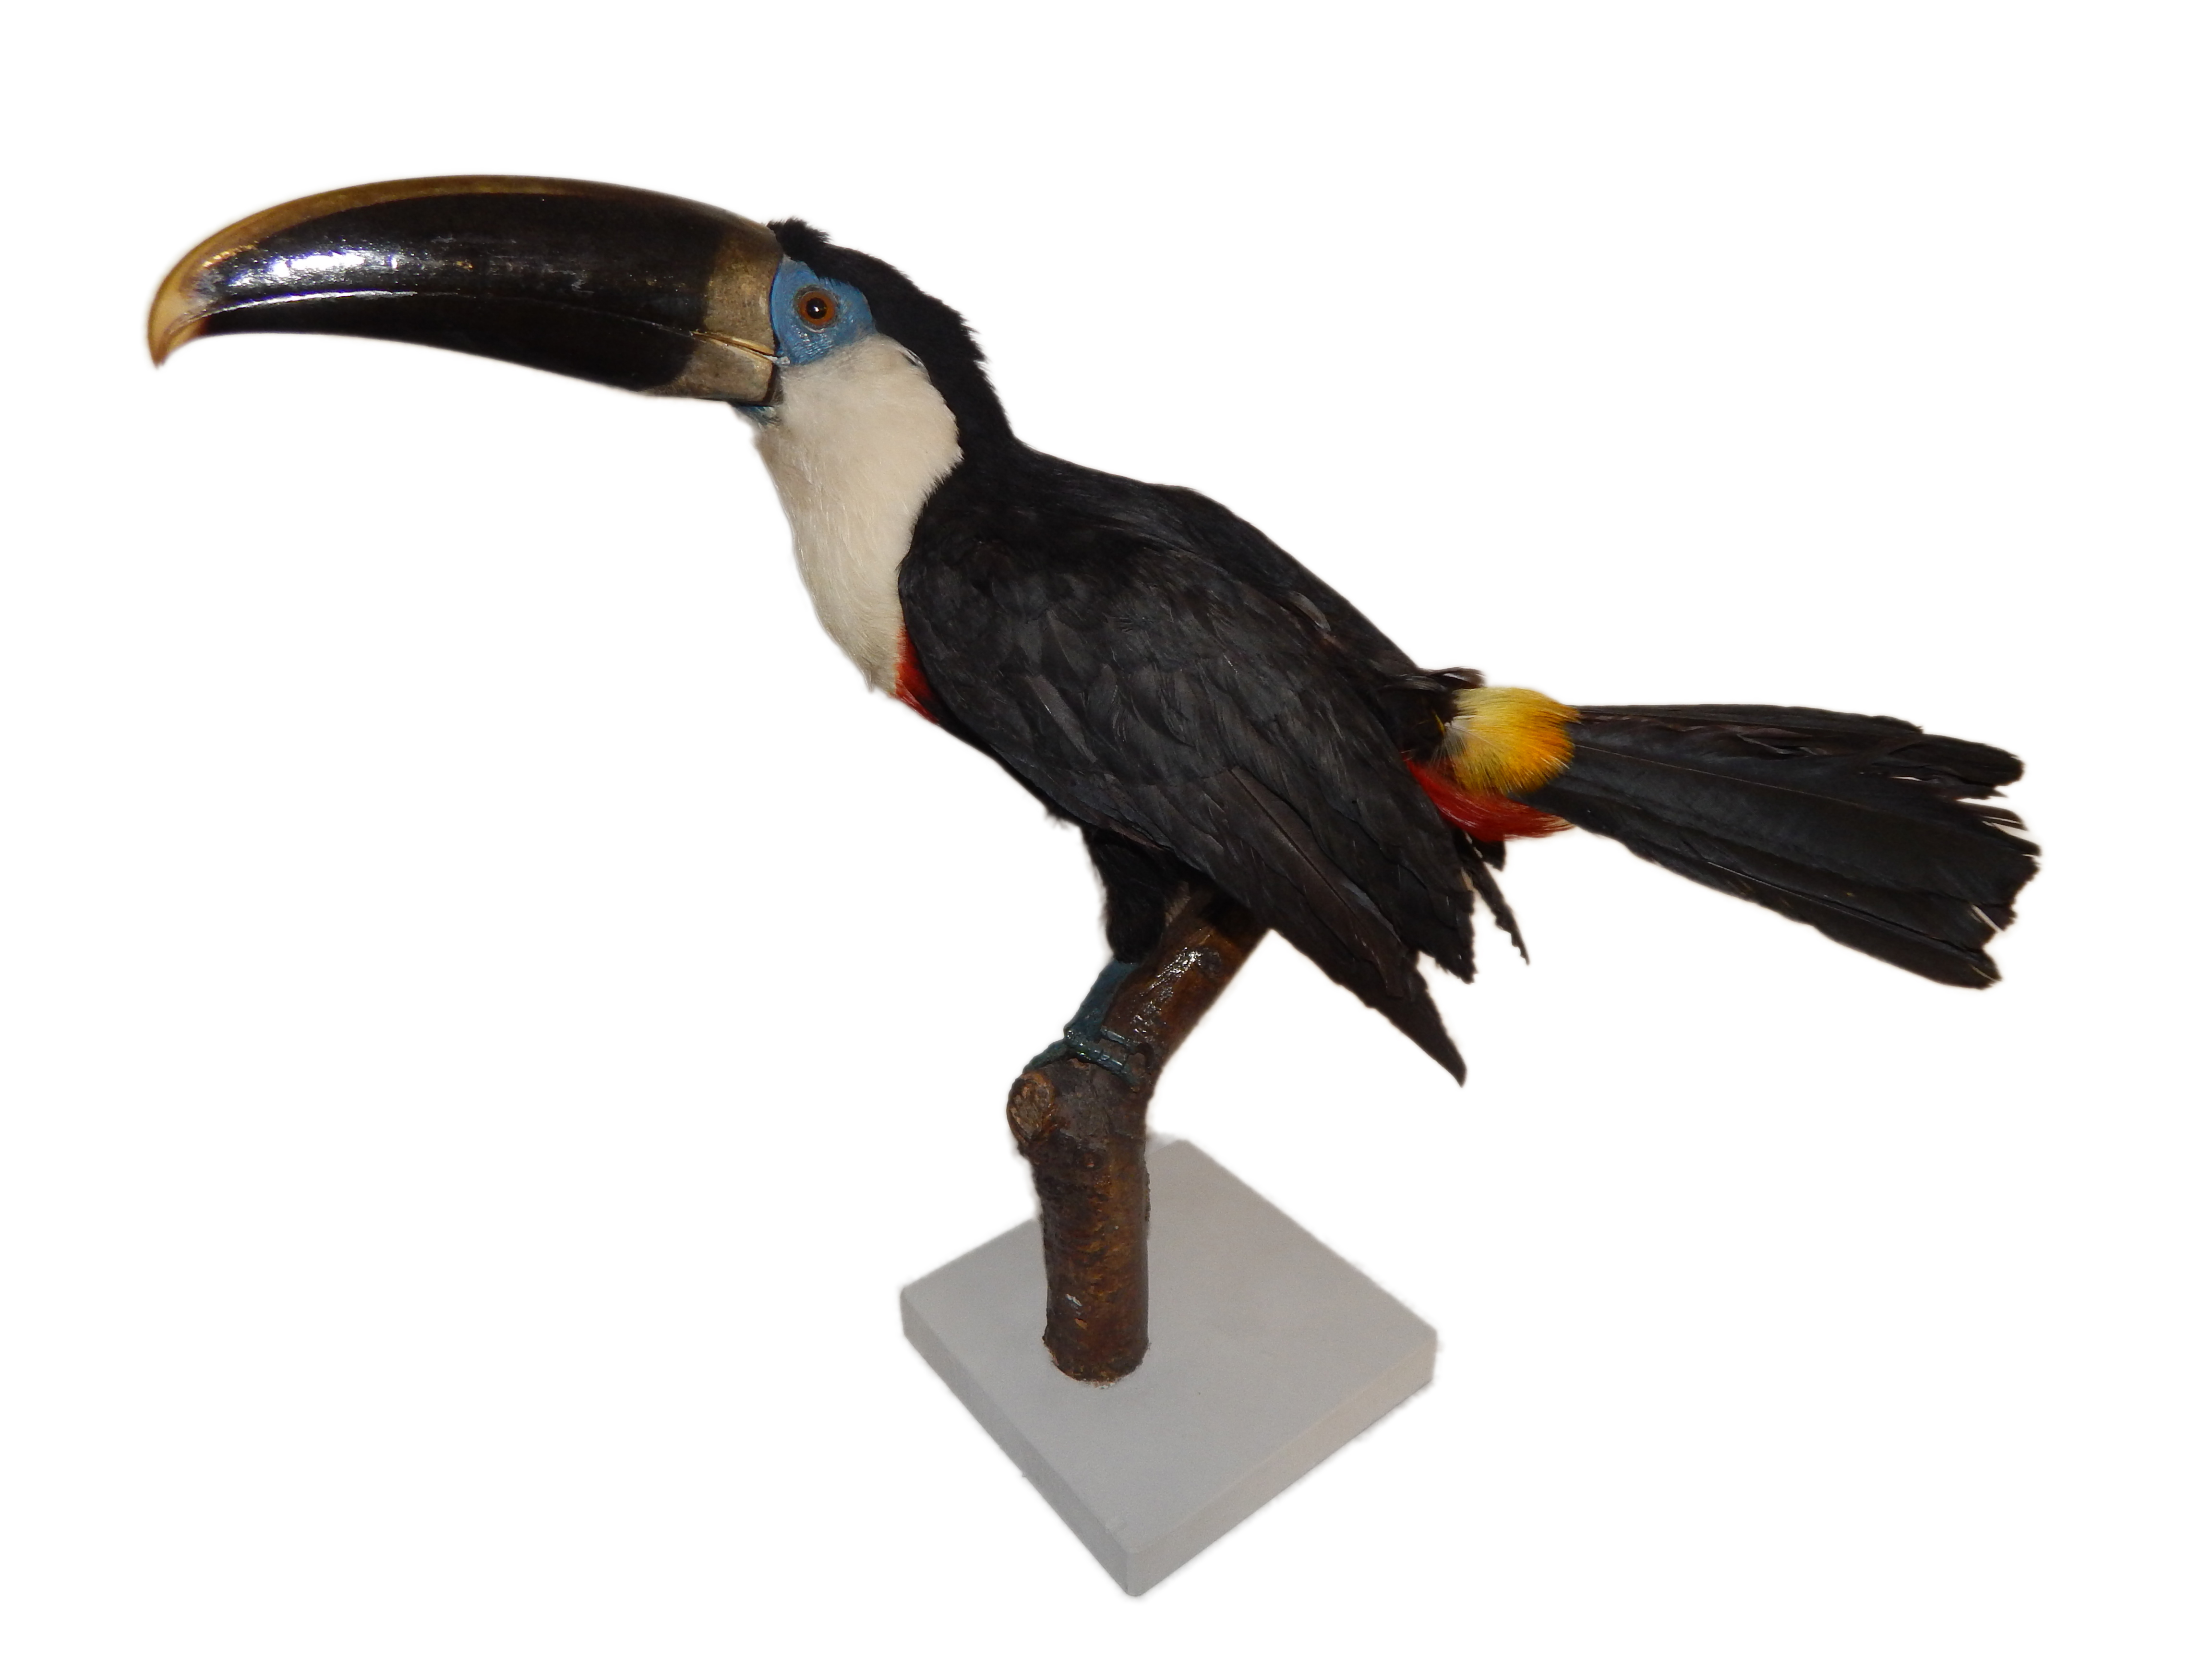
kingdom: Animalia
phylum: Chordata
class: Aves
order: Piciformes
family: Ramphastidae
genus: Ramphastos
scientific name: Ramphastos tucanus
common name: White-throated toucan
